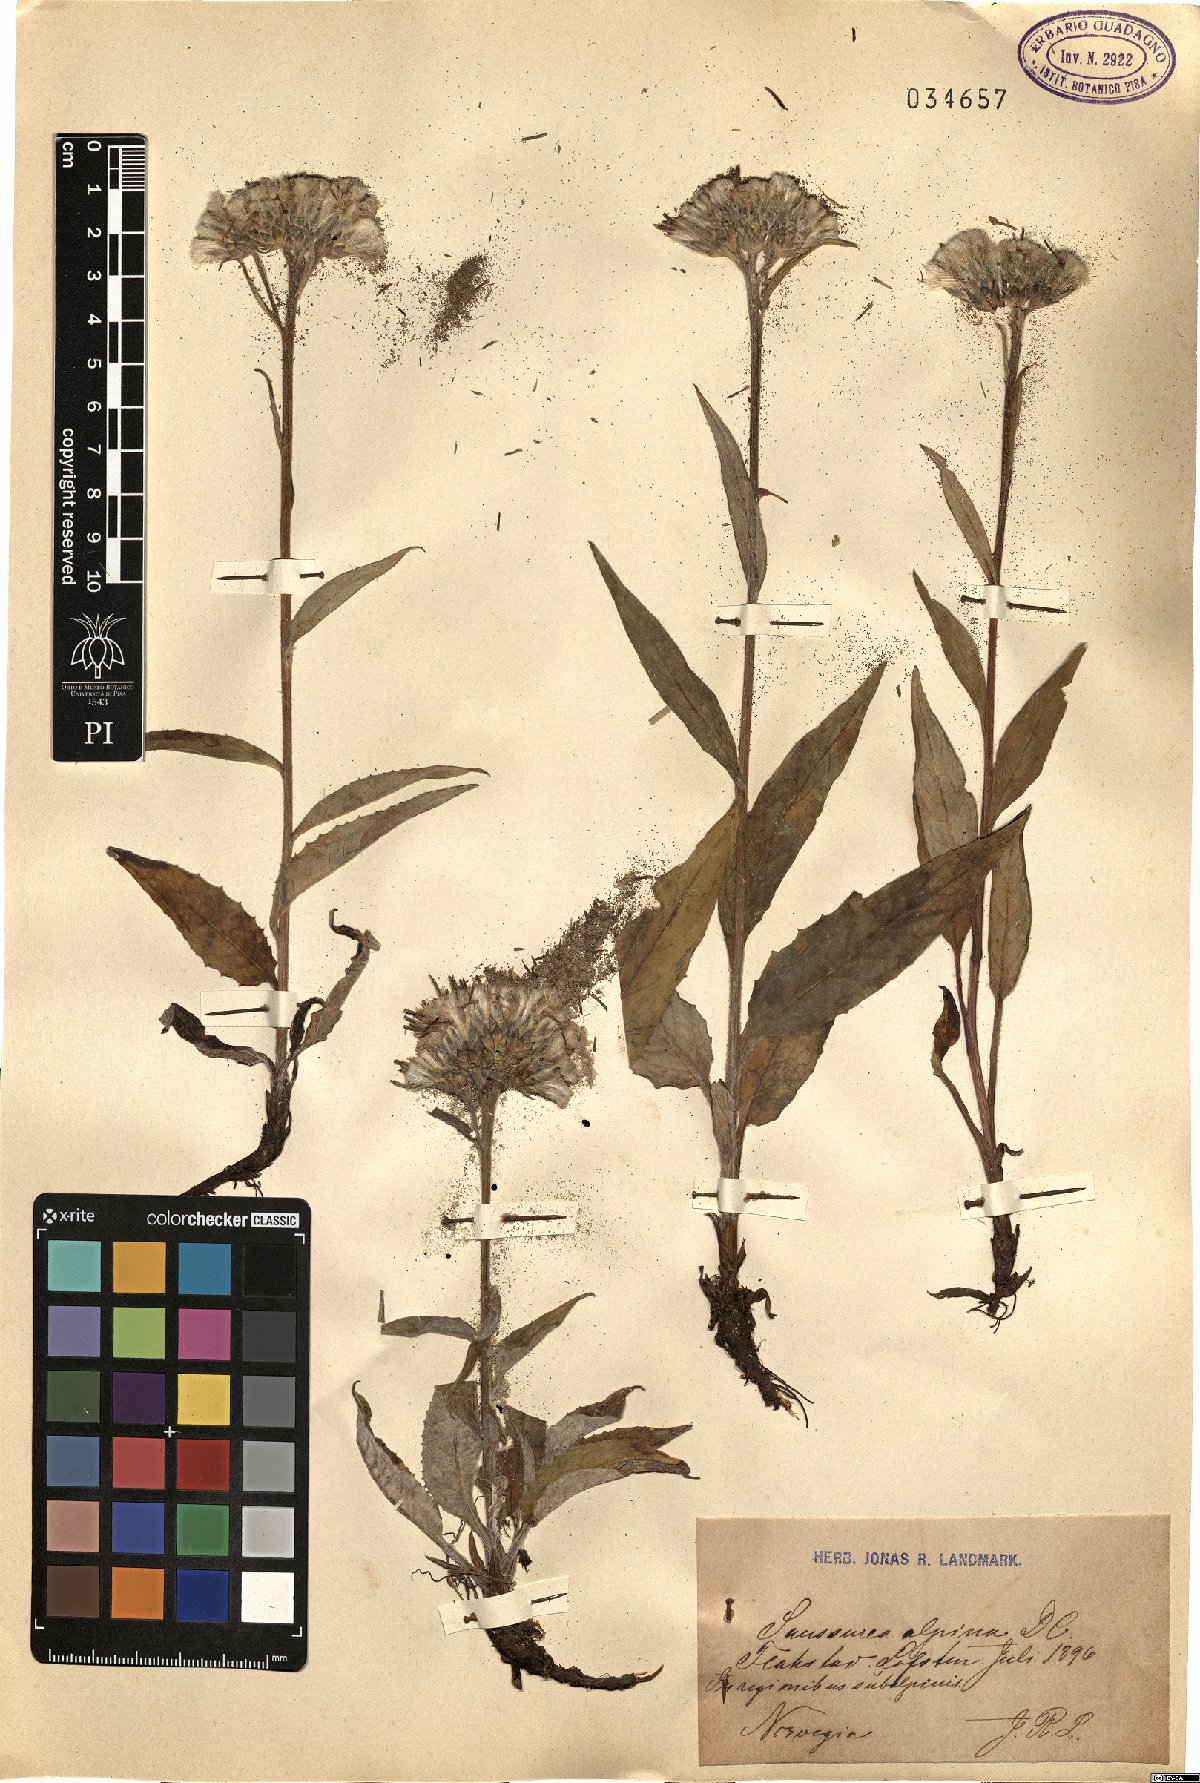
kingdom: Plantae
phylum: Tracheophyta
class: Magnoliopsida
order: Asterales
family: Asteraceae
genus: Saussurea
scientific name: Saussurea alpina
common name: Alpine saw-wort
